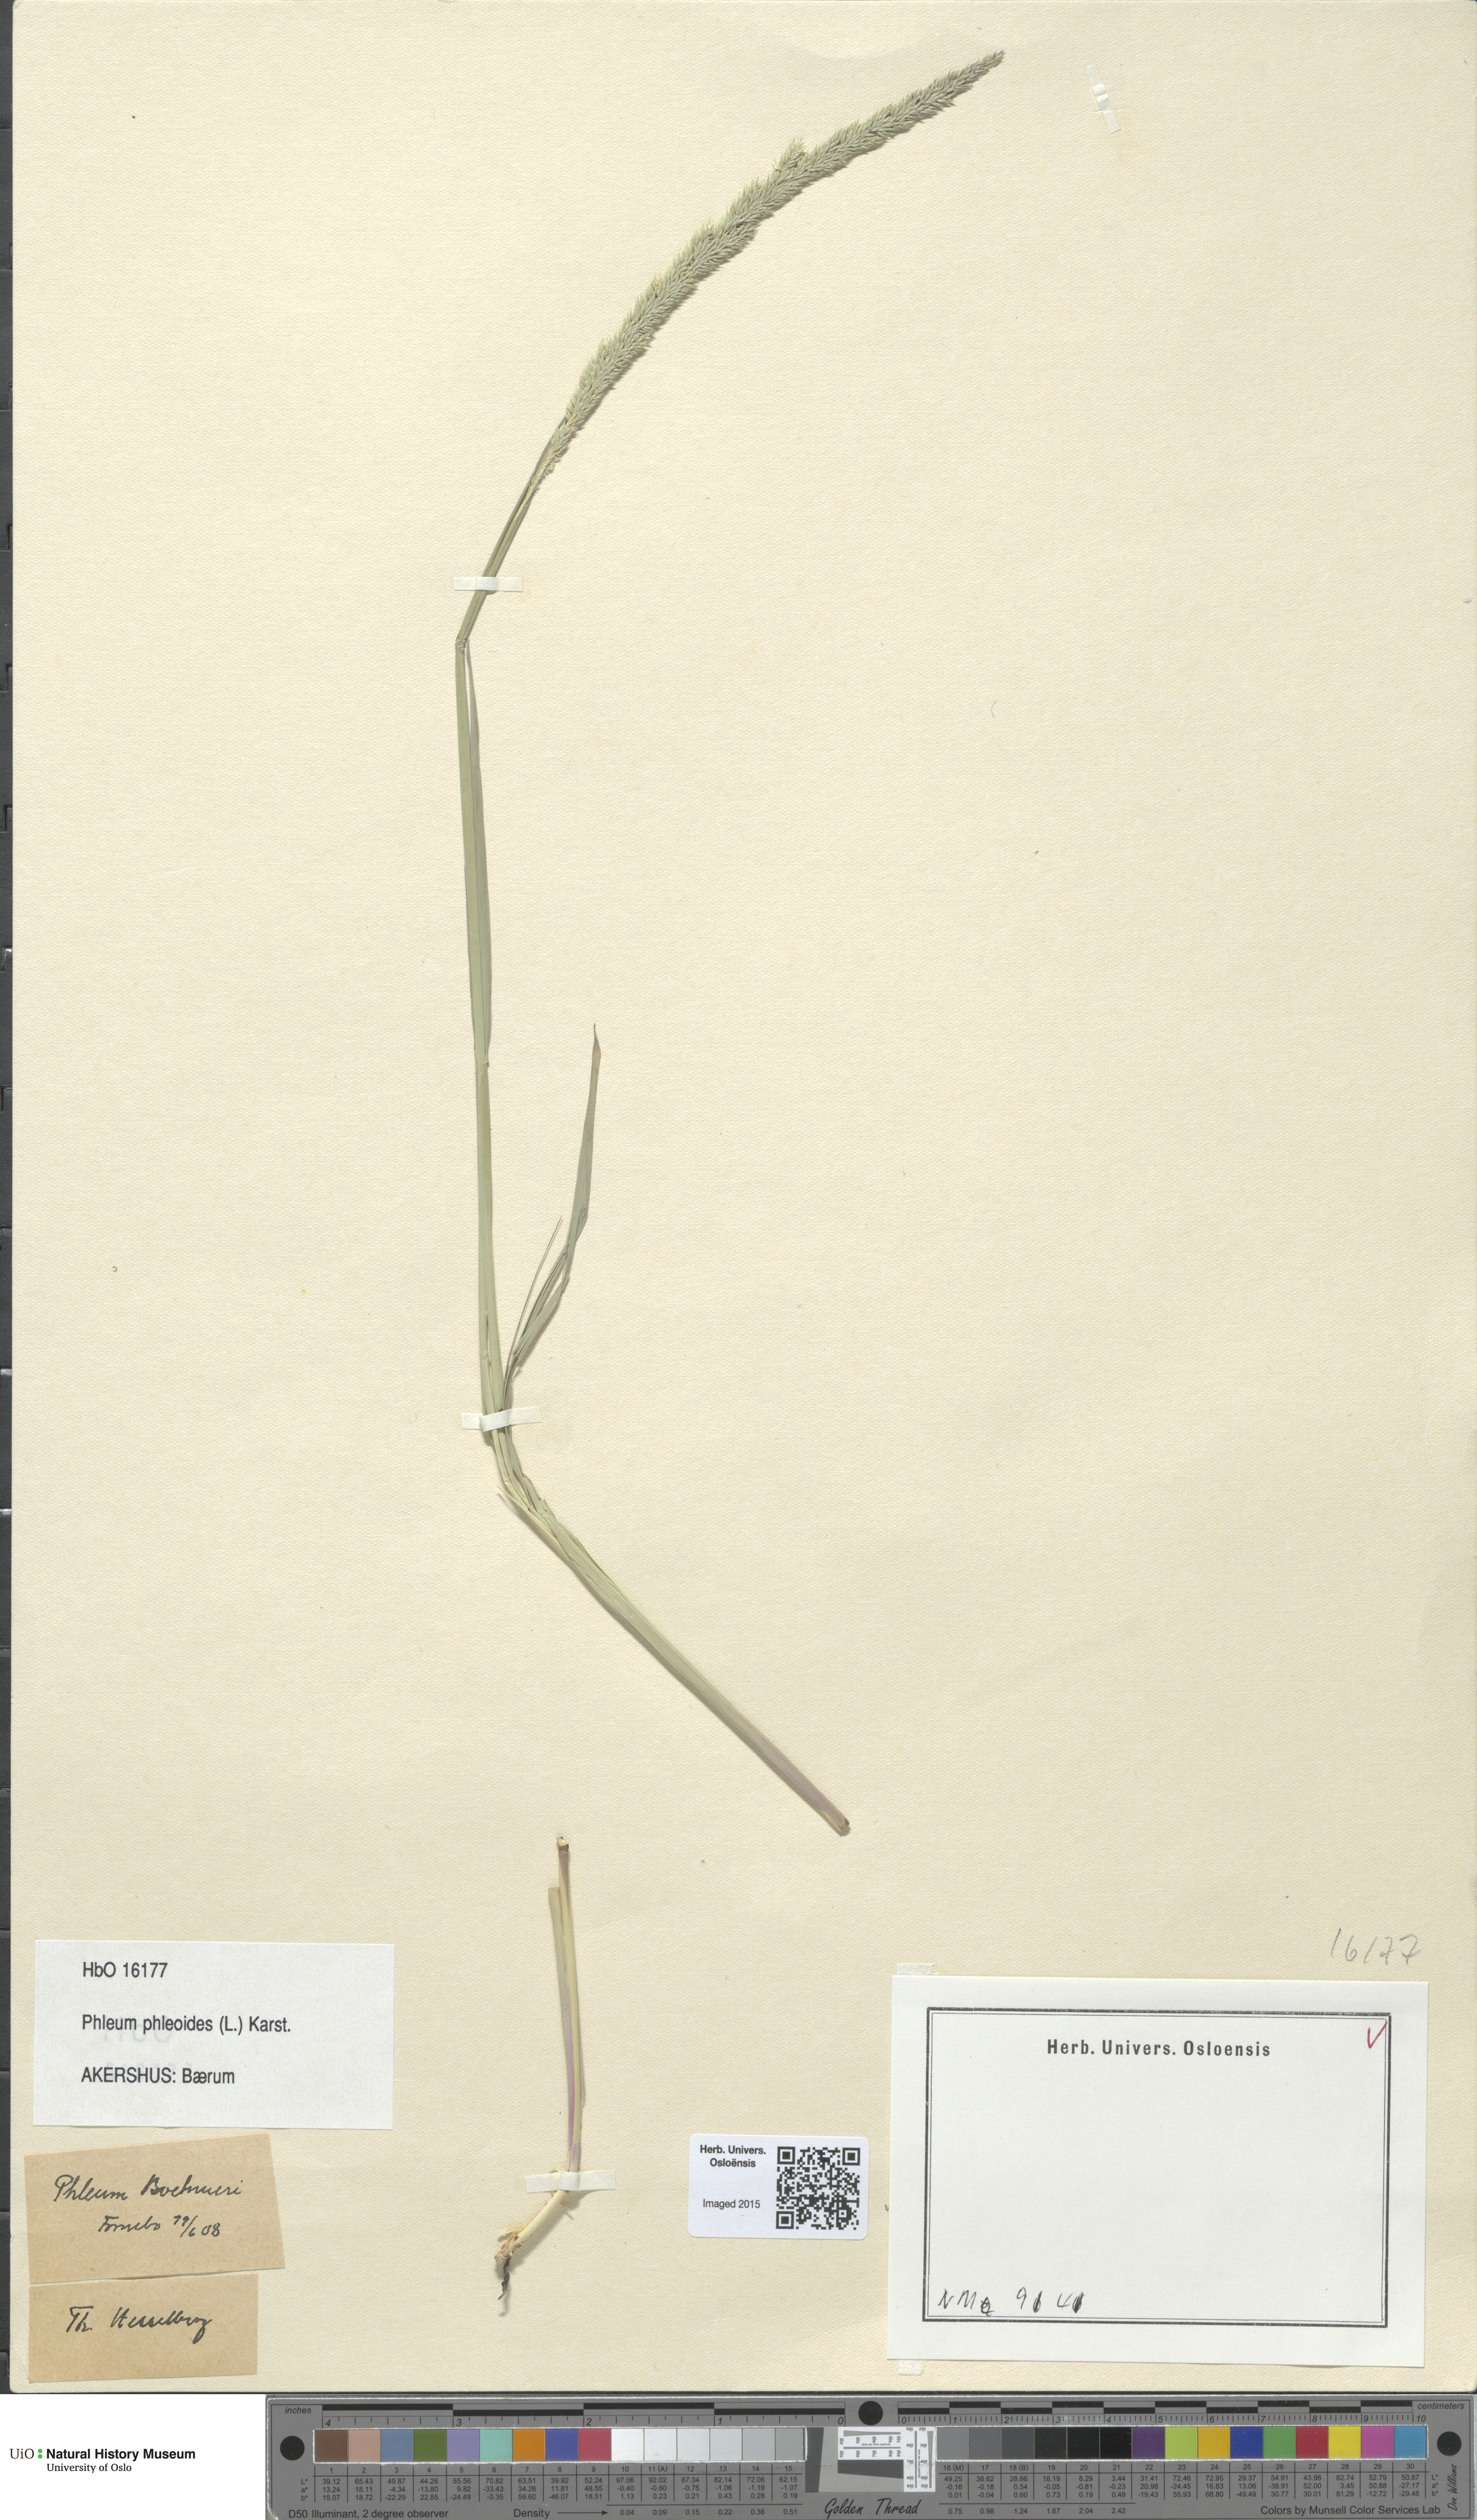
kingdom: Plantae
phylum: Tracheophyta
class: Liliopsida
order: Poales
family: Poaceae
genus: Phleum
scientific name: Phleum phleoides
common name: Purple-stem cat's-tail
